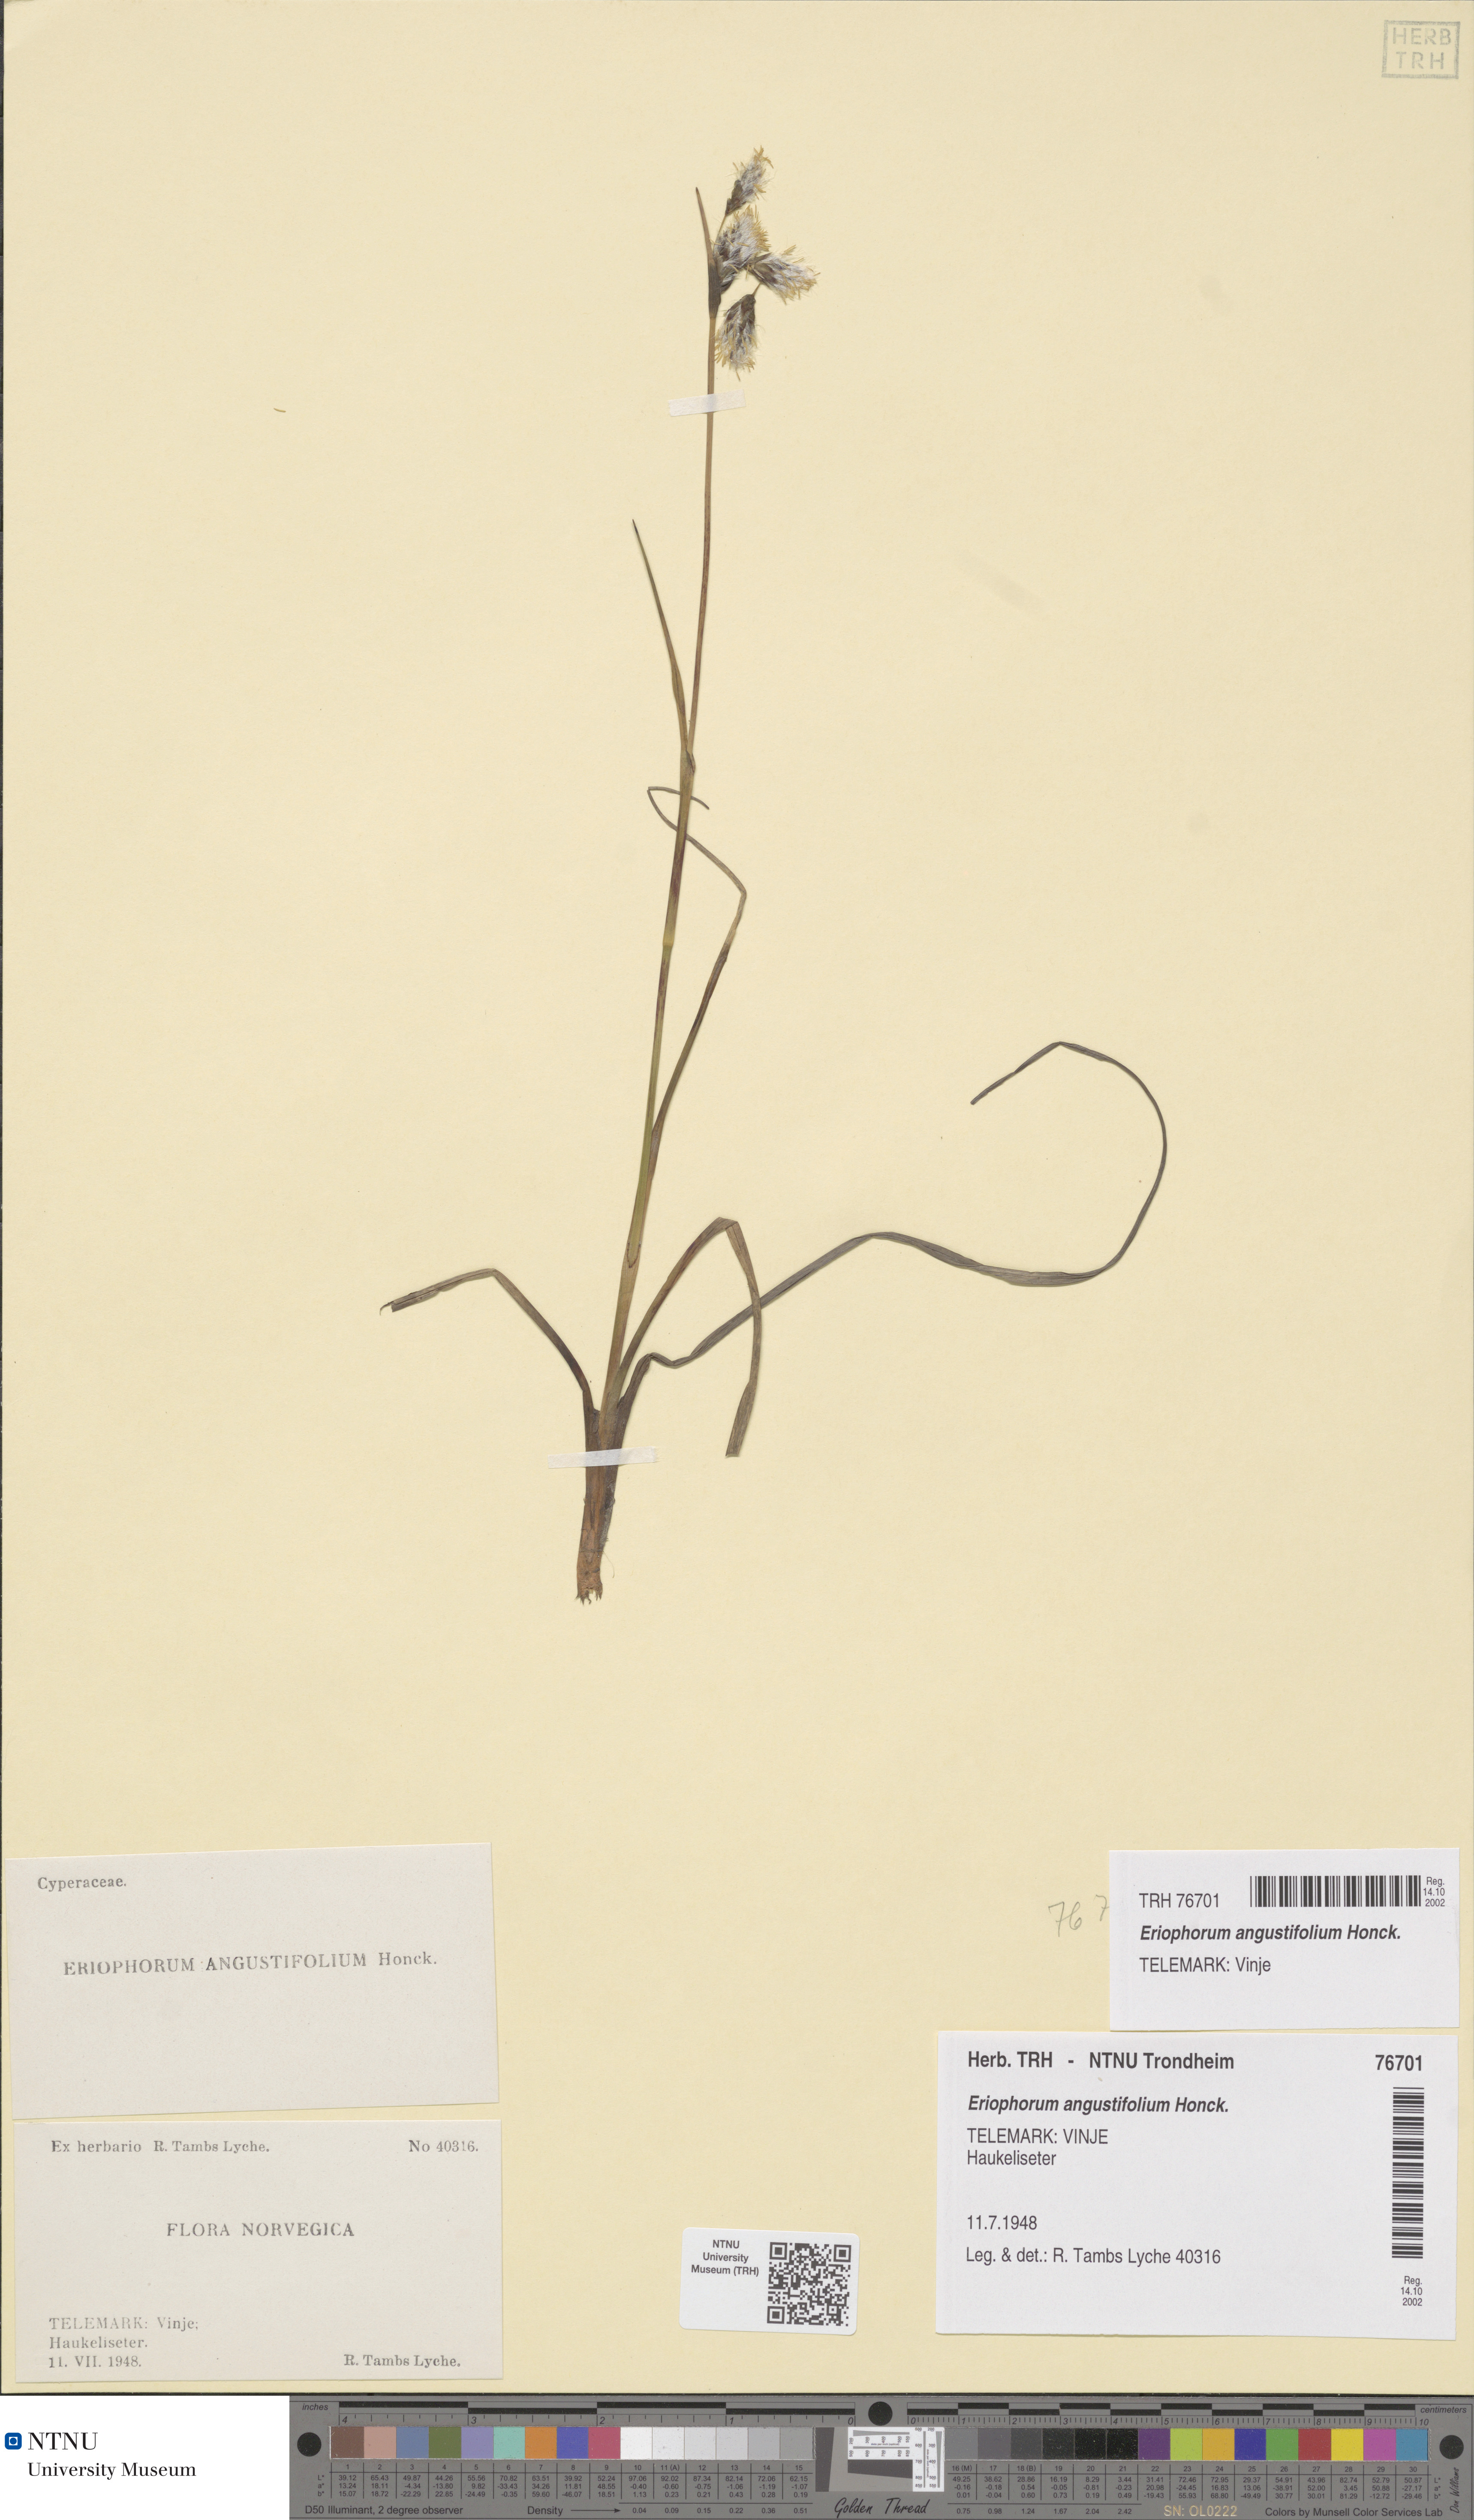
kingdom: Plantae
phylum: Tracheophyta
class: Liliopsida
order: Poales
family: Cyperaceae
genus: Eriophorum
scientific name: Eriophorum angustifolium
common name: Common cottongrass
